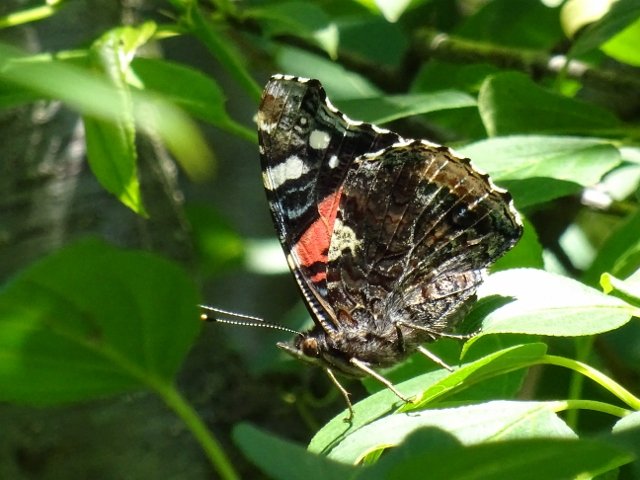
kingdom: Animalia
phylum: Arthropoda
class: Insecta
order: Lepidoptera
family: Nymphalidae
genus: Vanessa
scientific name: Vanessa atalanta
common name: Red Admiral
